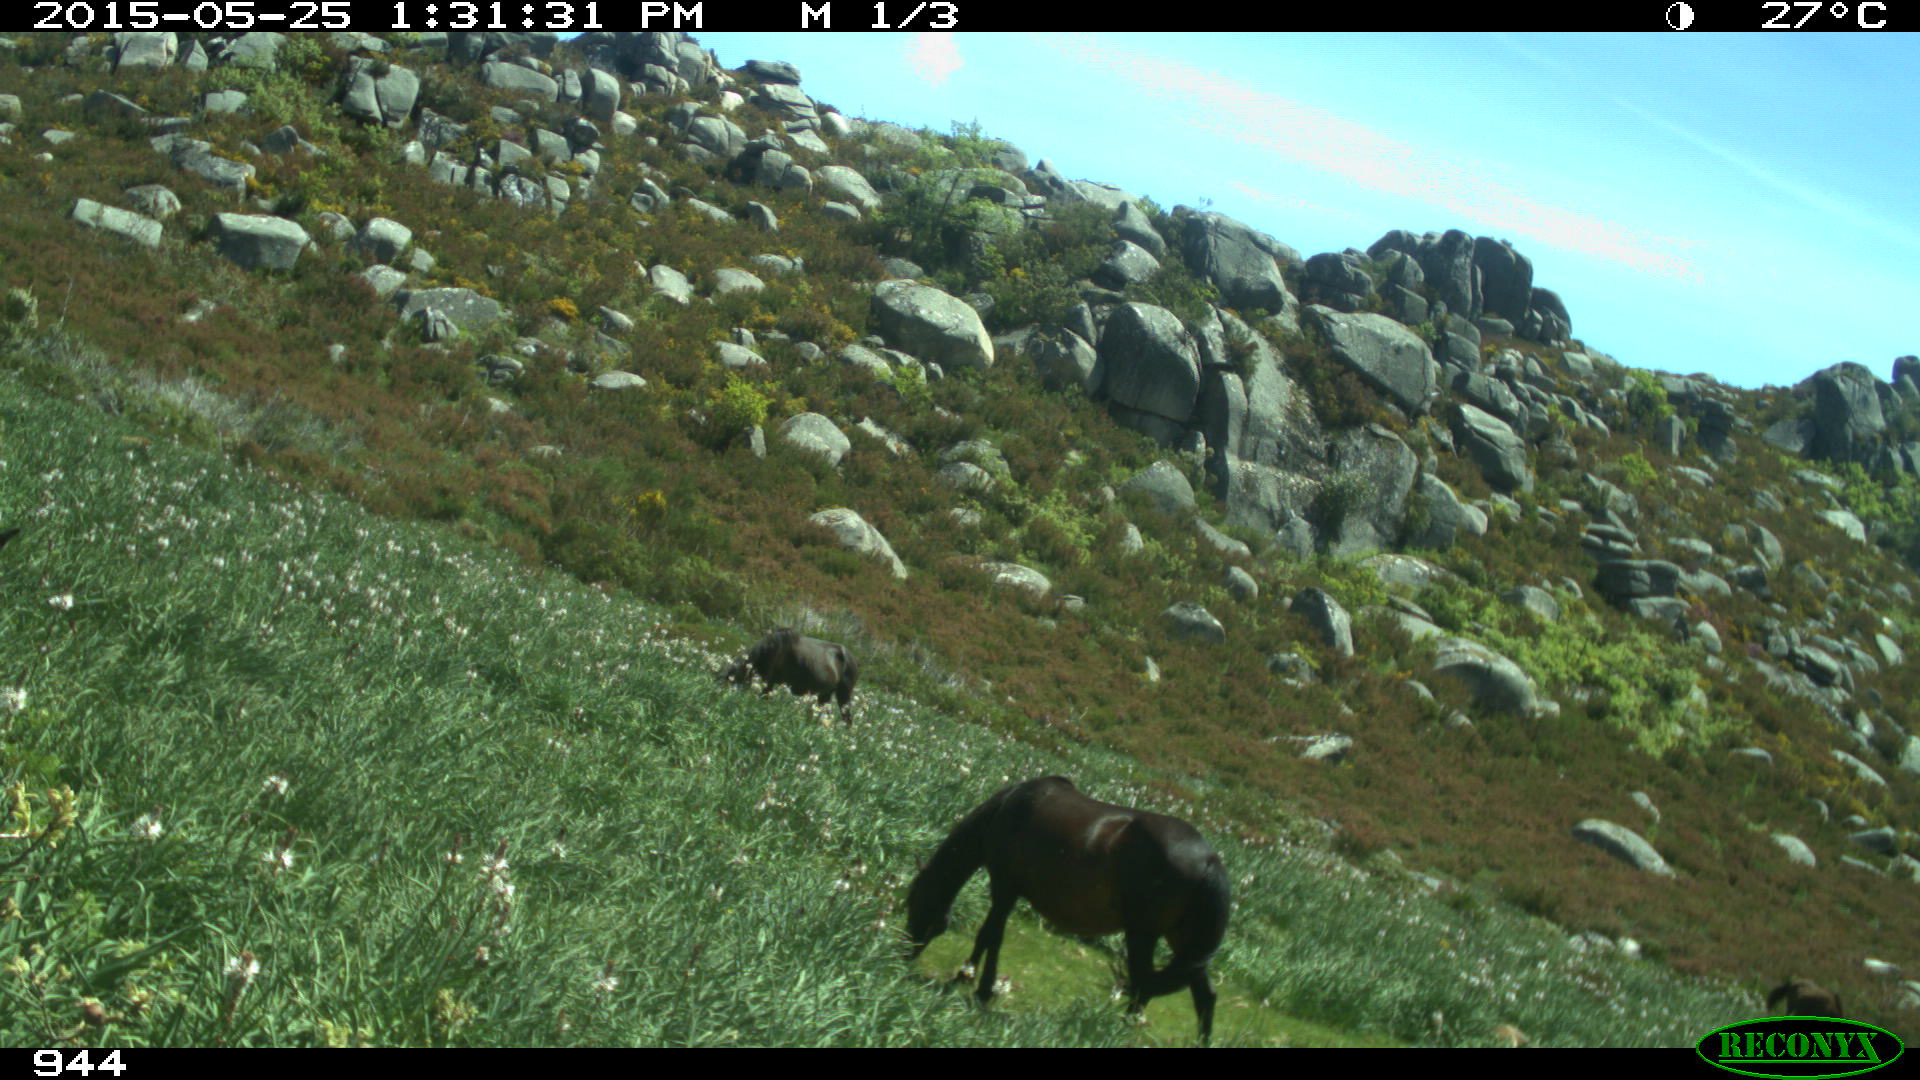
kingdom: Animalia
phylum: Chordata
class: Mammalia
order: Perissodactyla
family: Equidae
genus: Equus
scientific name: Equus caballus
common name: Horse
